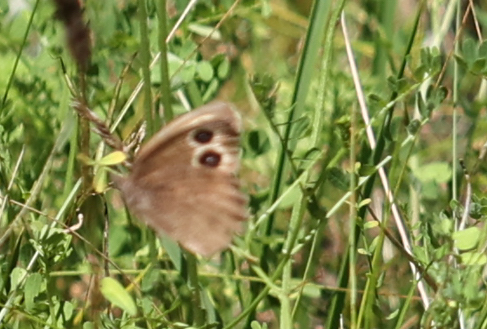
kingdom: Animalia
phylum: Arthropoda
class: Insecta
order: Lepidoptera
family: Nymphalidae
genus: Cercyonis
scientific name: Cercyonis pegala
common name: Common Wood-Nymph
